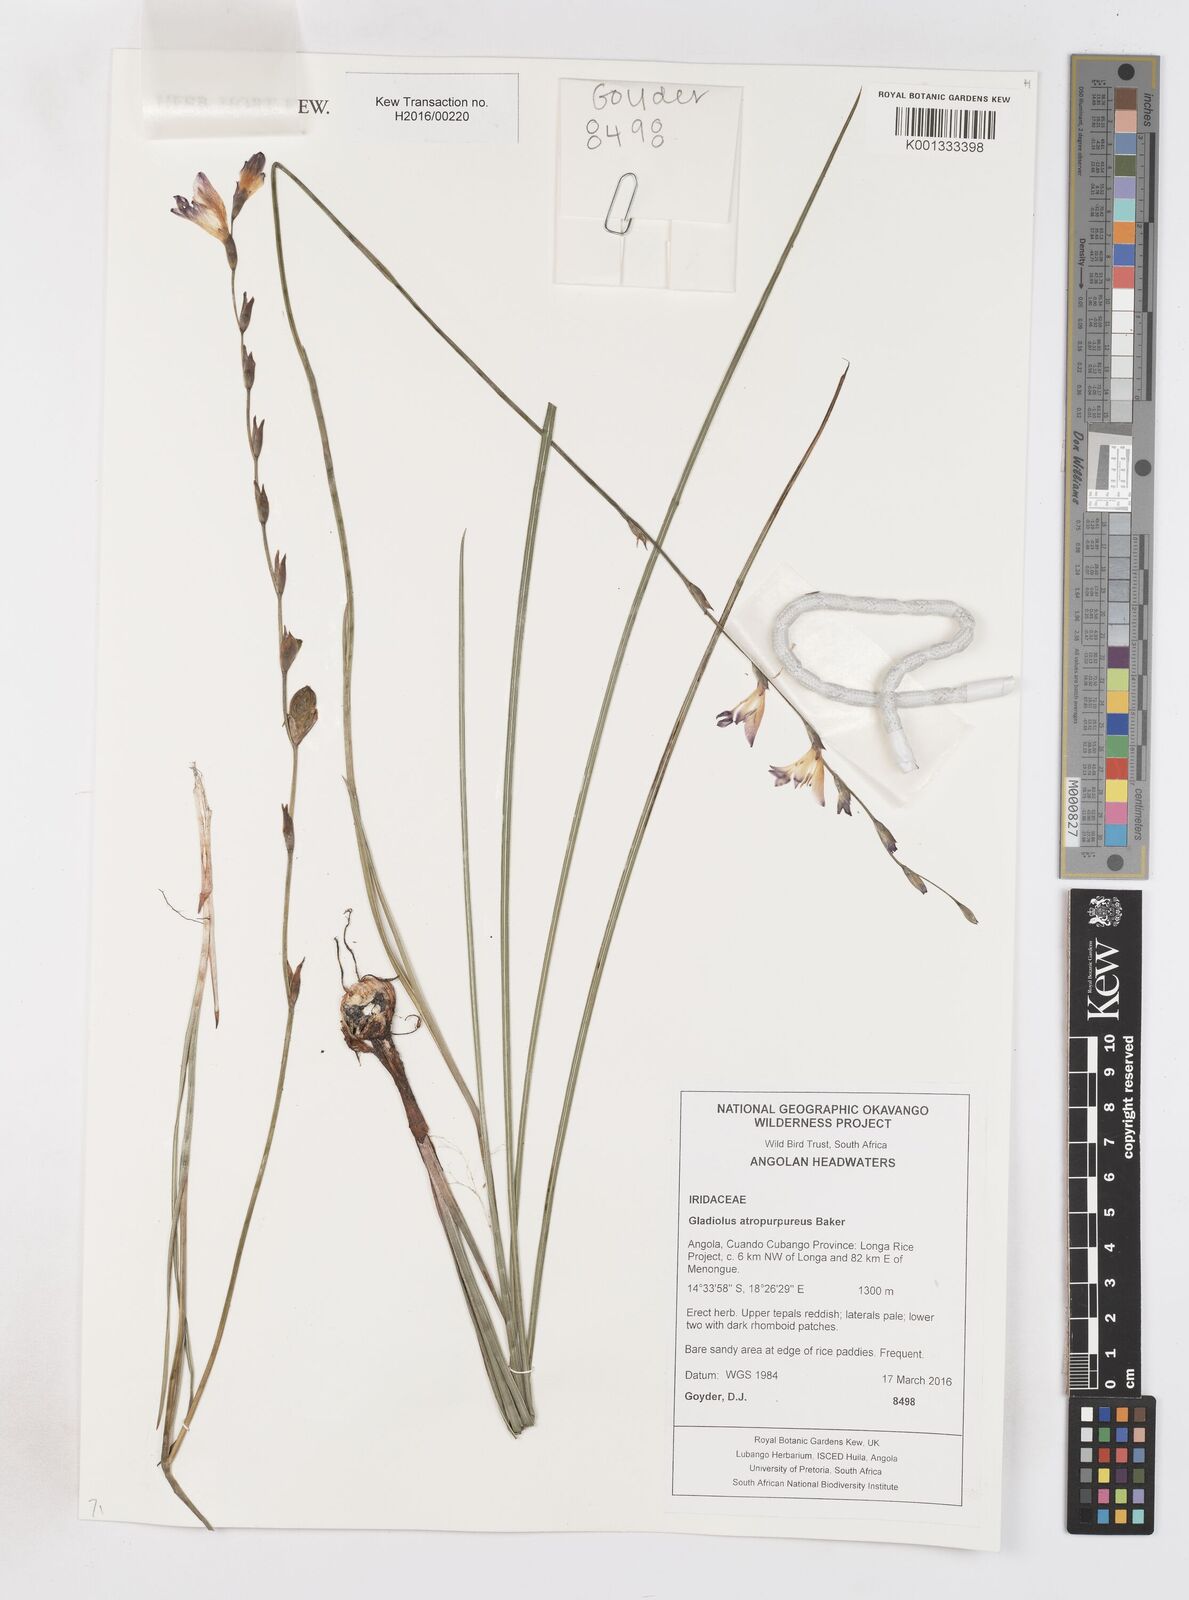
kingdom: Plantae
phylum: Tracheophyta
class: Liliopsida
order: Asparagales
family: Iridaceae
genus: Gladiolus
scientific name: Gladiolus atropurpureus
